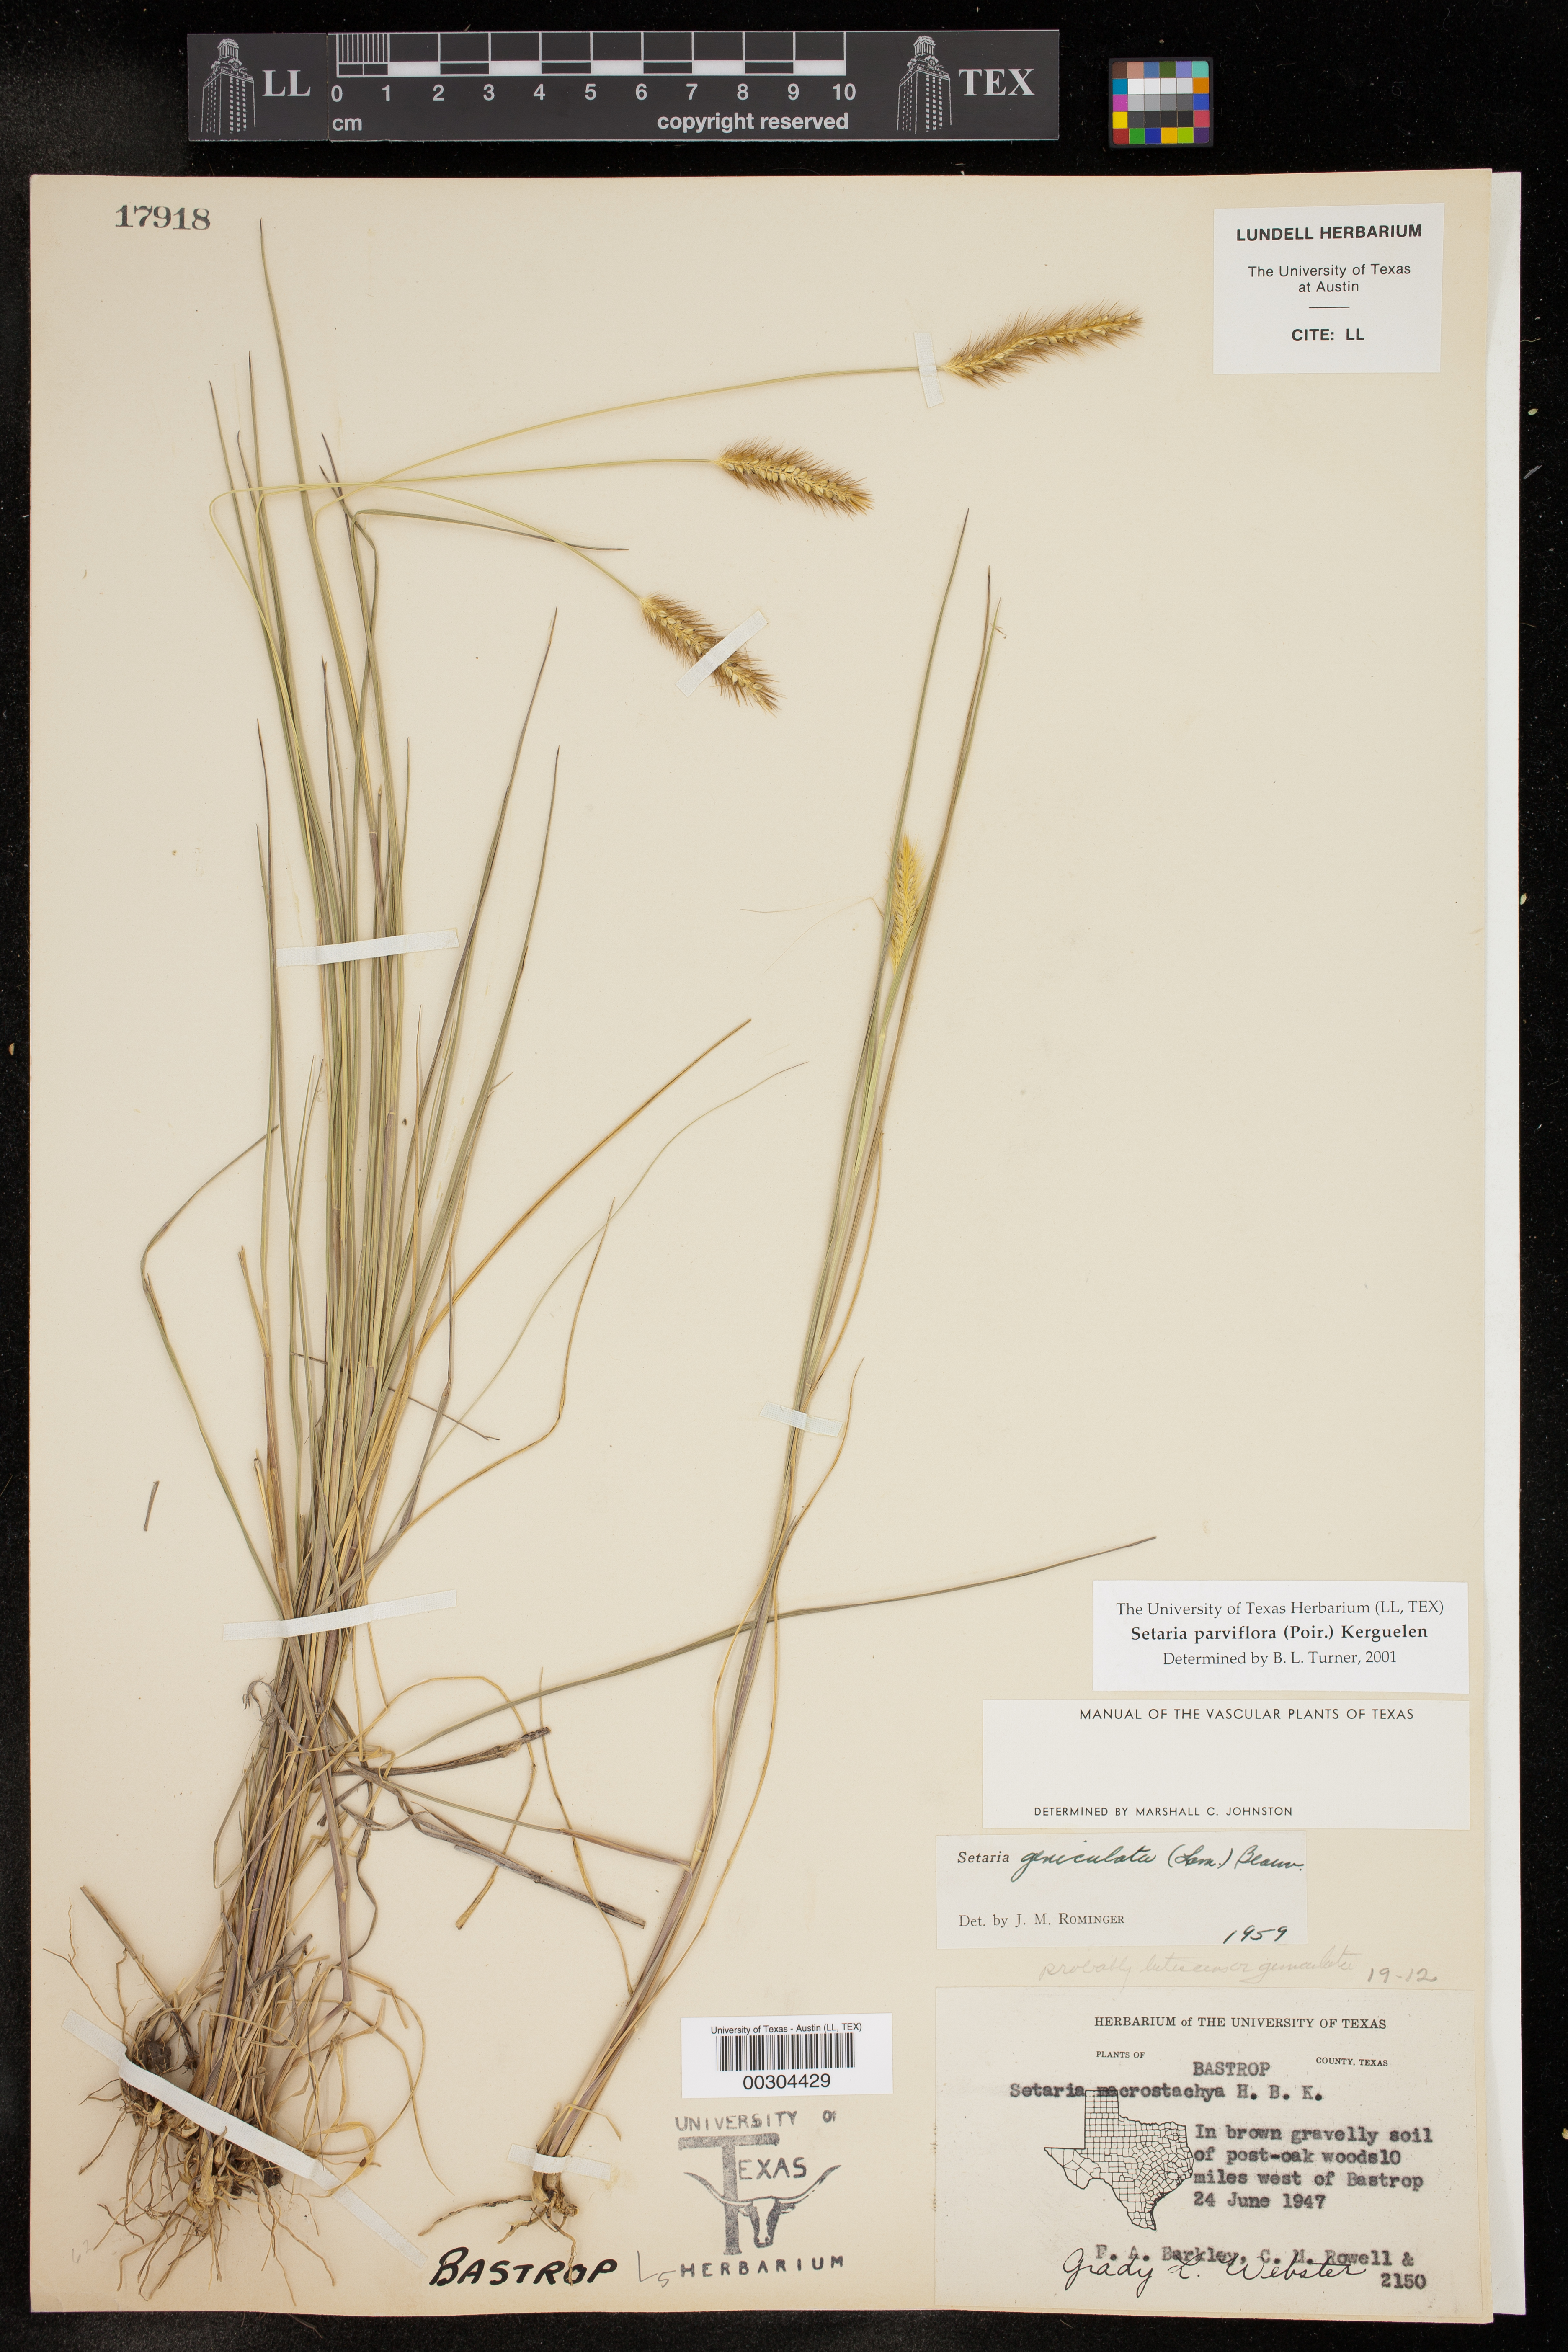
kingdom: Plantae
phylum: Tracheophyta
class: Liliopsida
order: Poales
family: Poaceae
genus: Setaria
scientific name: Setaria parviflora
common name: Knotroot bristle-grass
